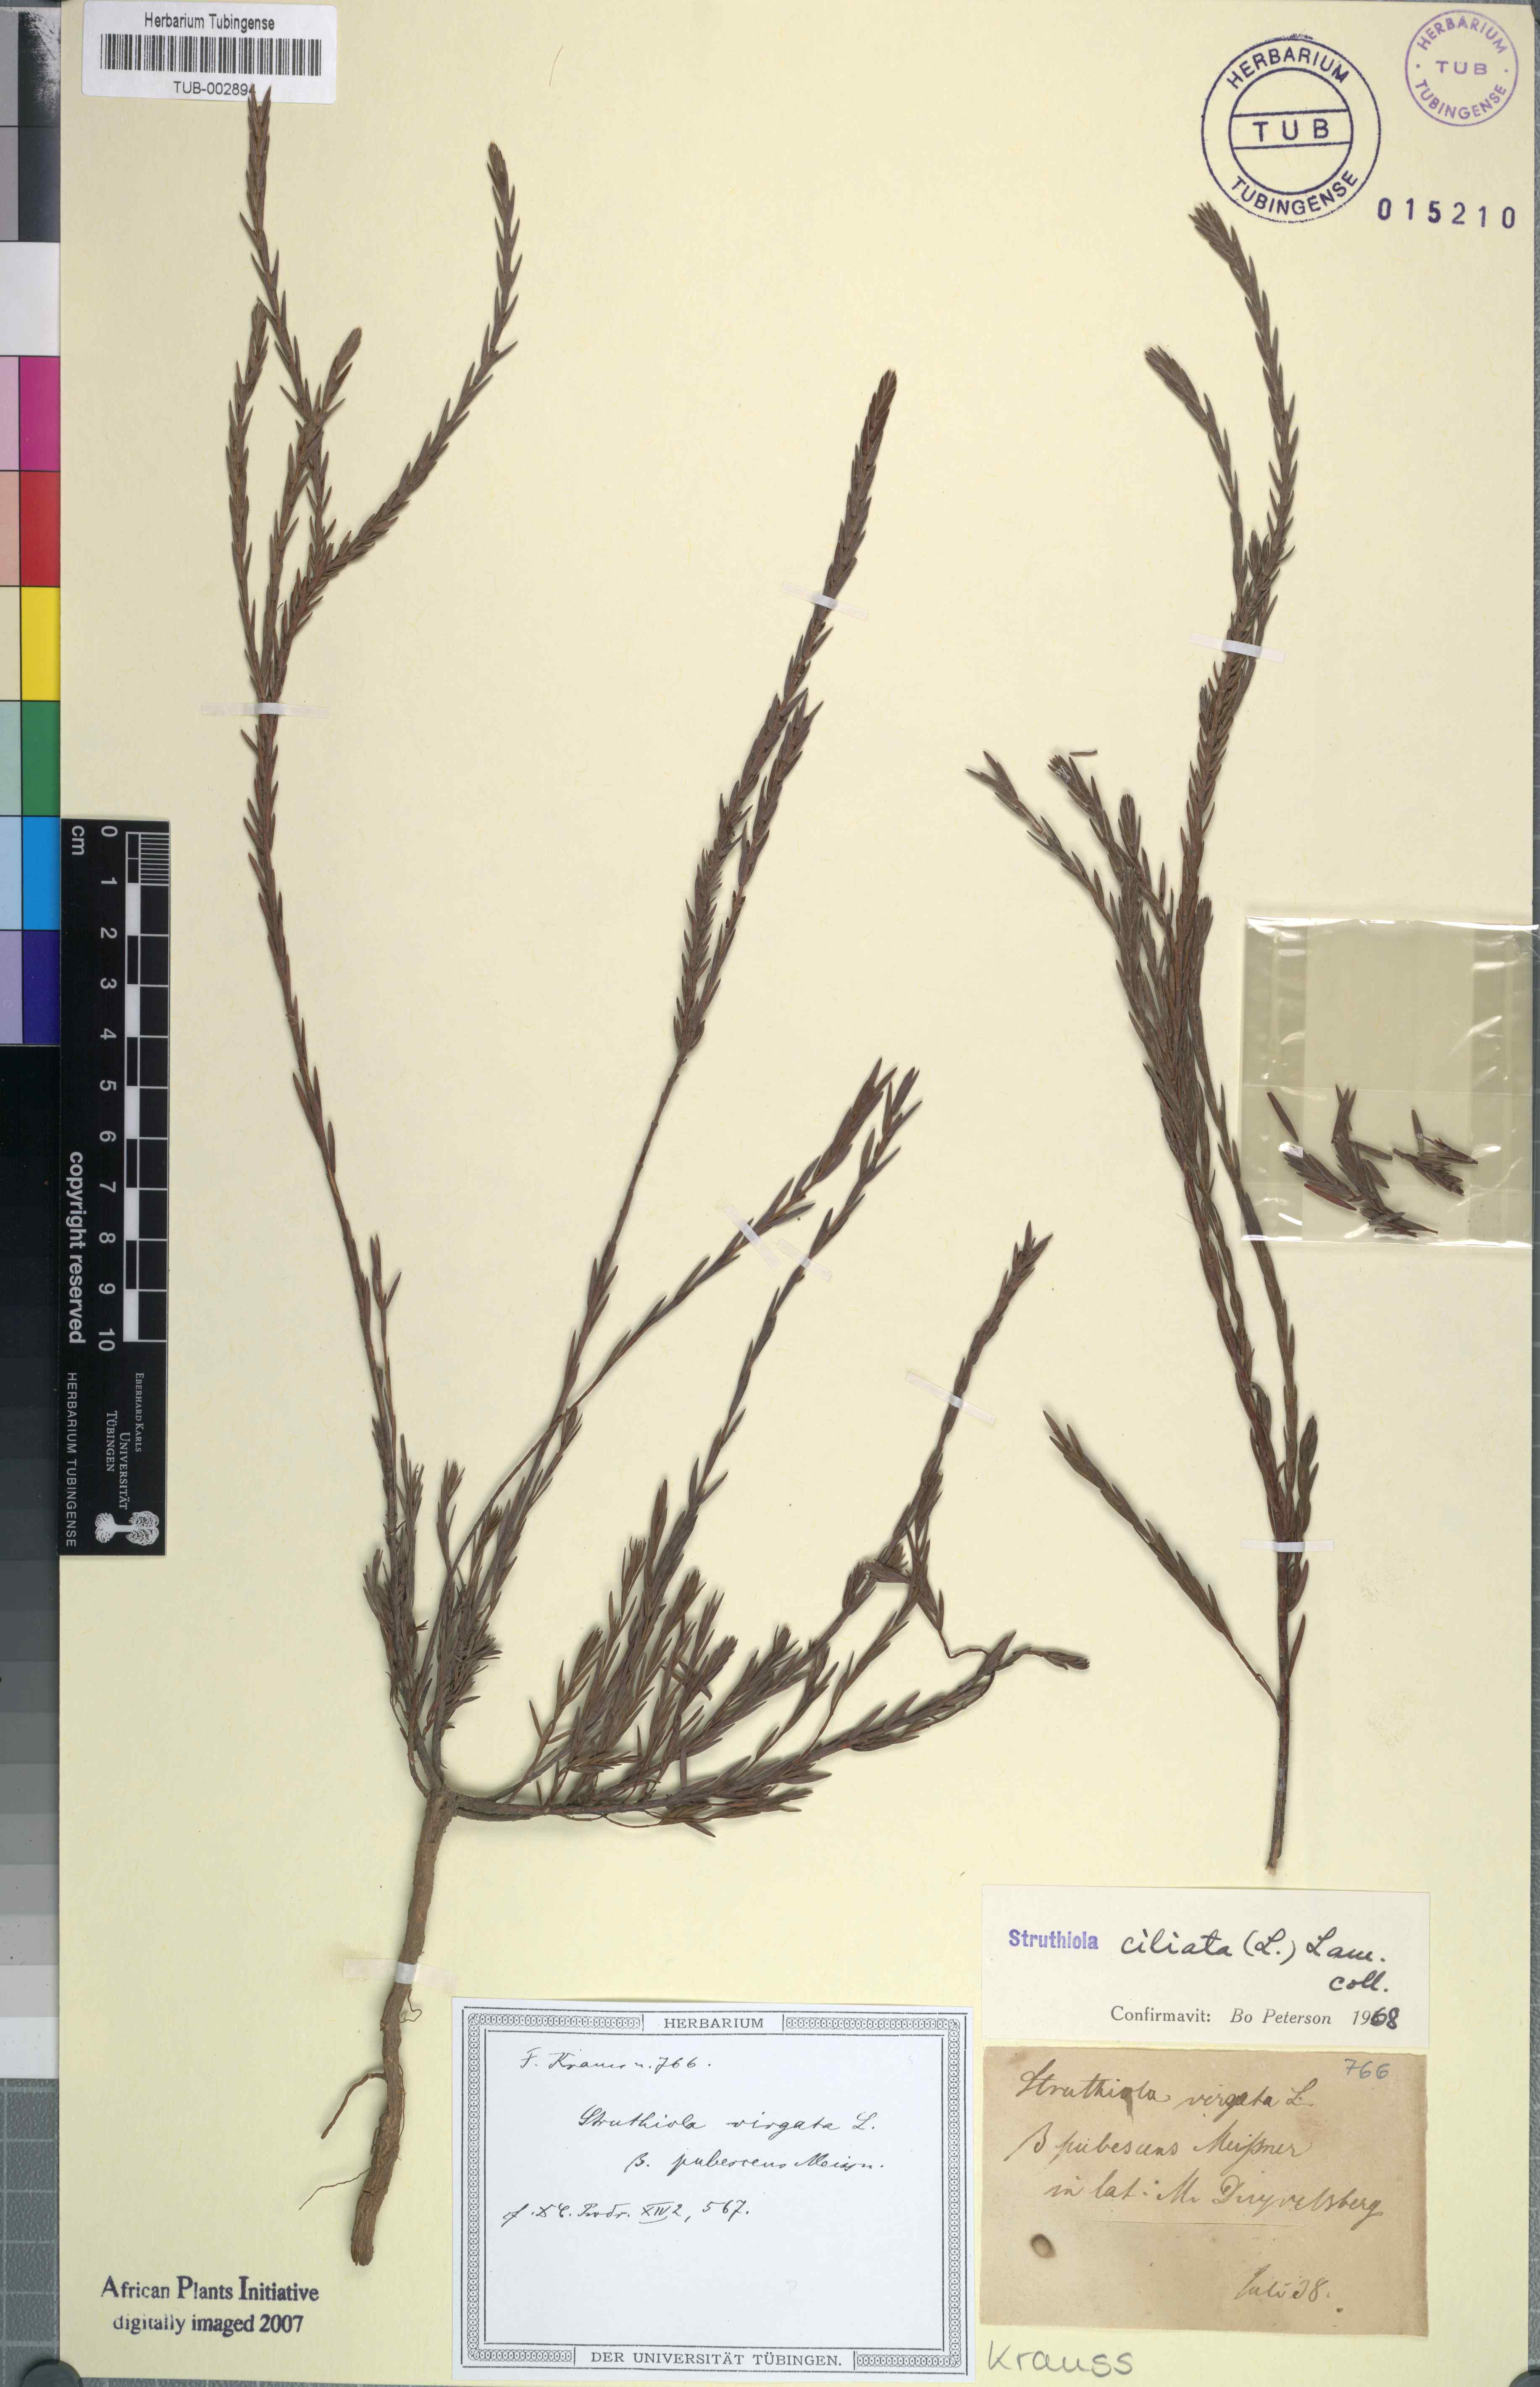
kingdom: Plantae
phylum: Tracheophyta
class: Magnoliopsida
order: Malvales
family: Thymelaeaceae
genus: Struthiola
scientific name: Struthiola ciliata
